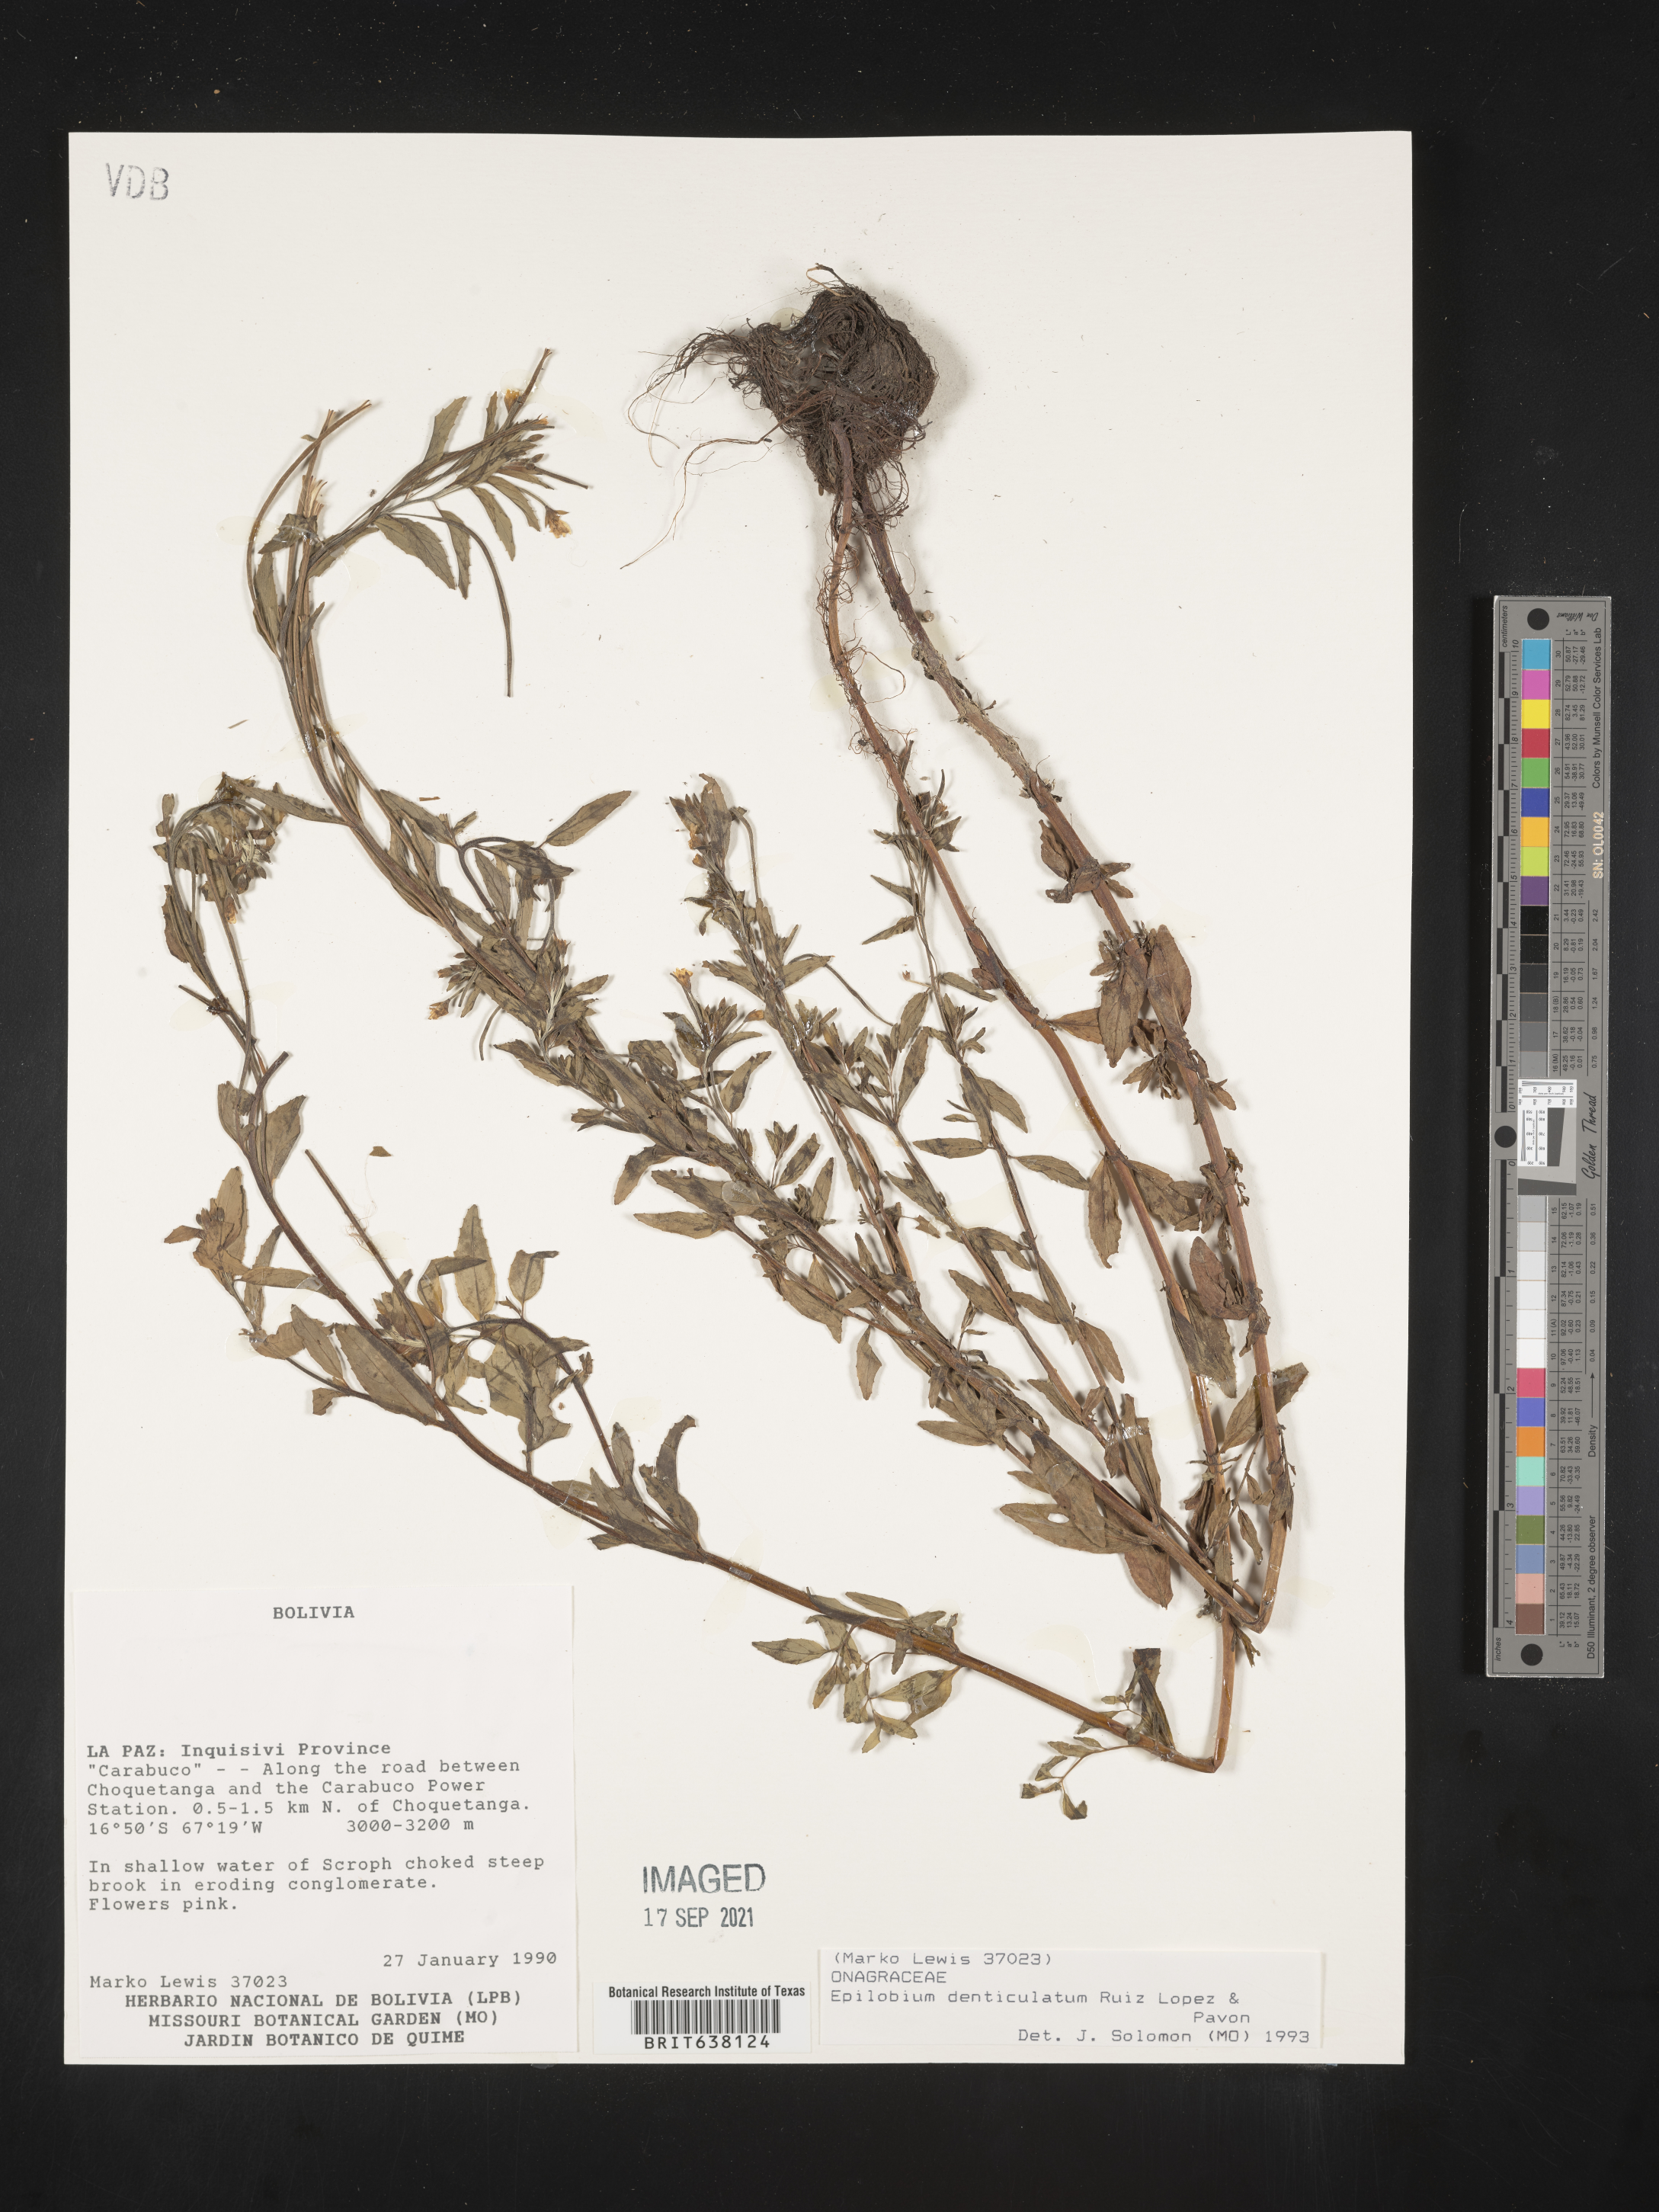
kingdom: Plantae
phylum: Tracheophyta
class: Magnoliopsida
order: Myrtales
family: Onagraceae
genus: Epilobium
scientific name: Epilobium
